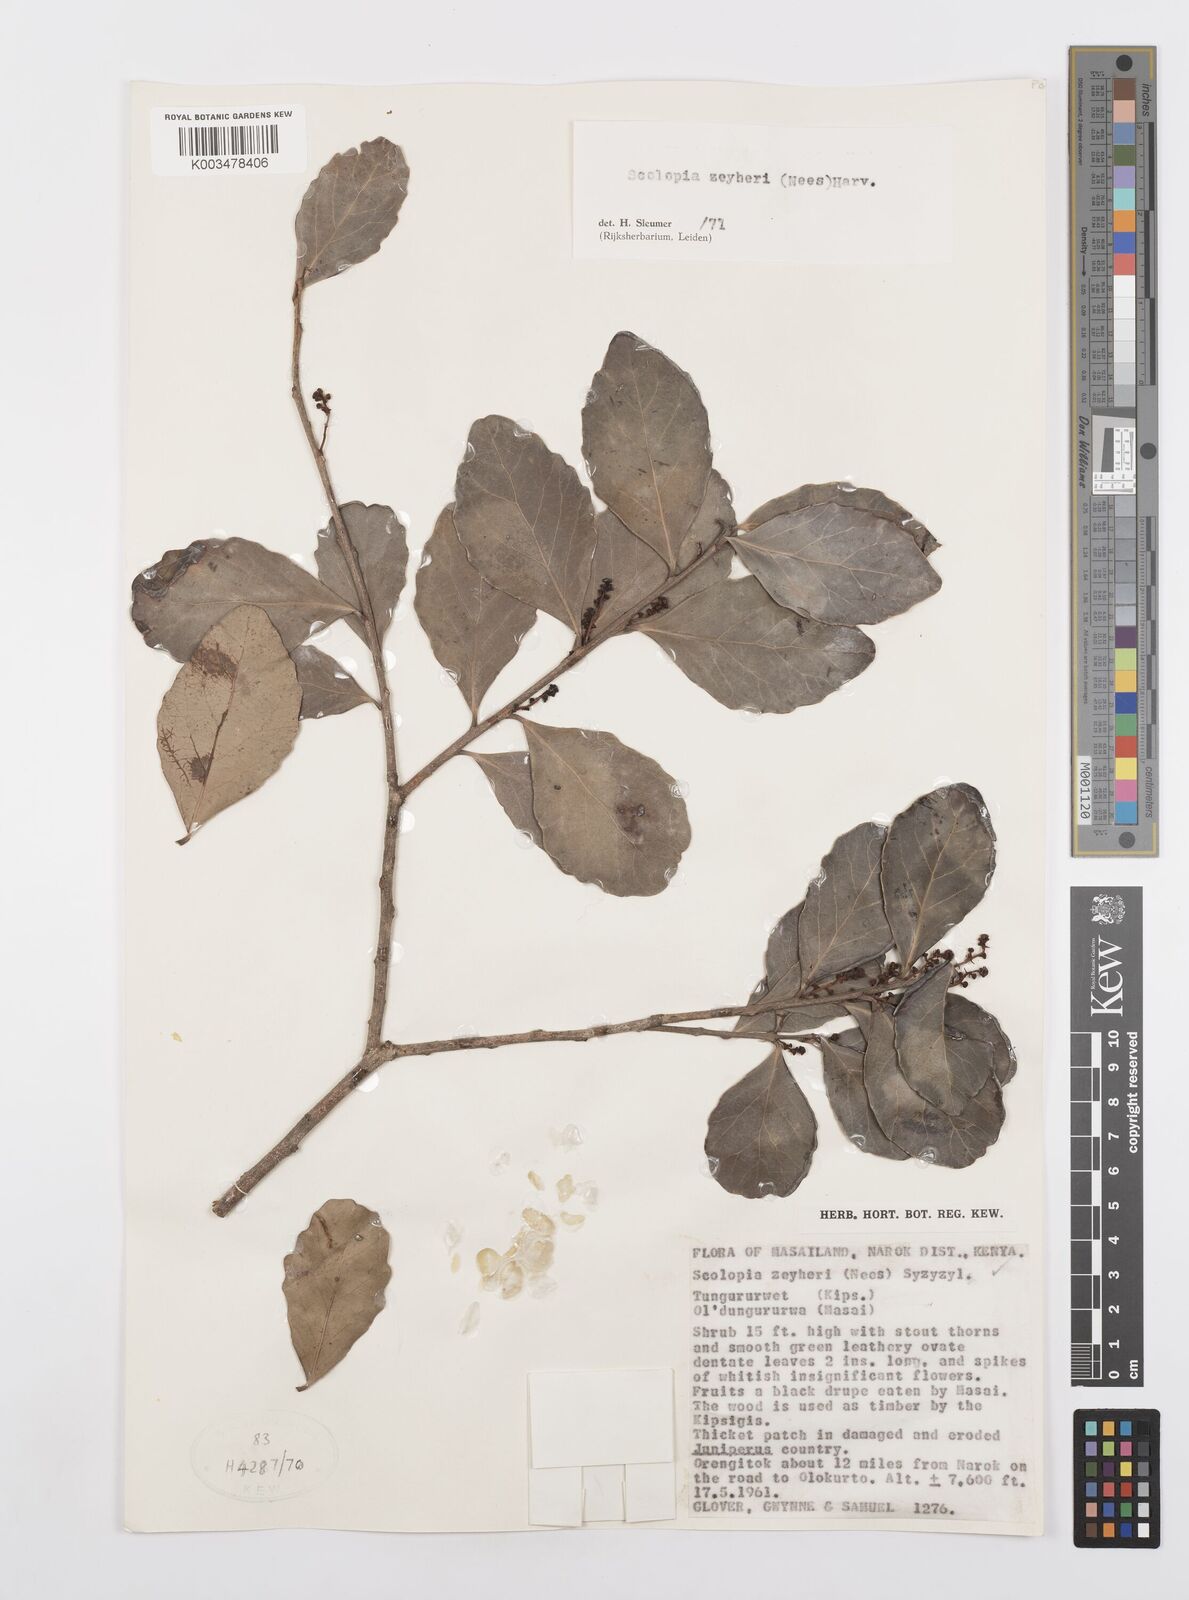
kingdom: Plantae
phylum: Tracheophyta
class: Magnoliopsida
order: Malpighiales
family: Salicaceae
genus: Scolopia
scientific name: Scolopia zeyheri
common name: Thorn pear
